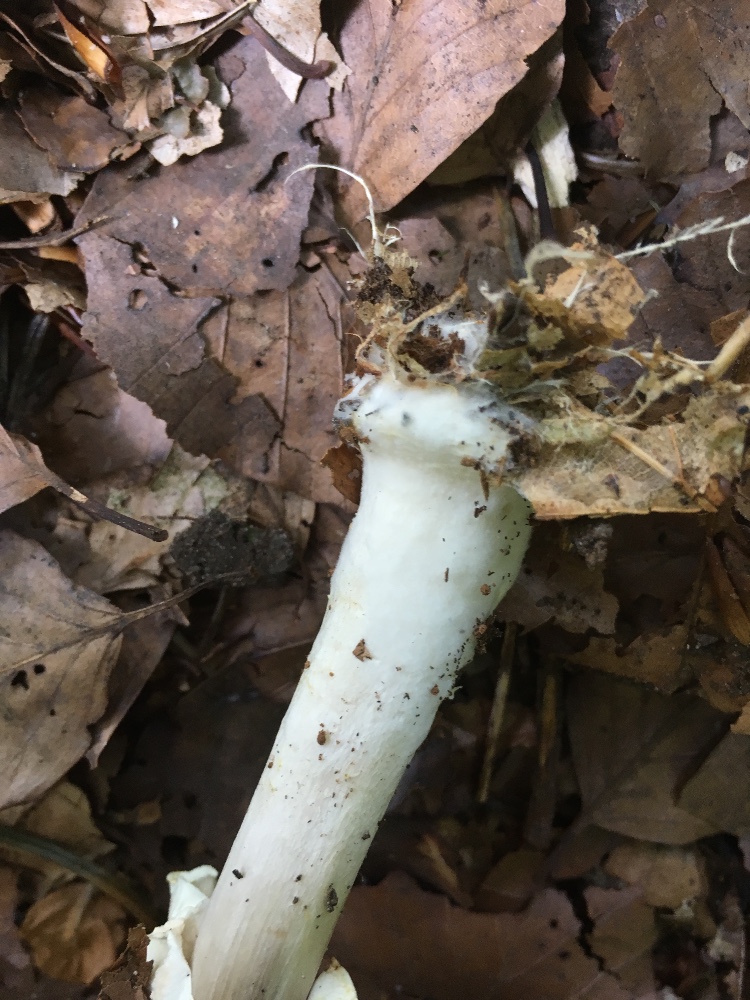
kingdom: Fungi
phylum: Basidiomycota
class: Agaricomycetes
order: Agaricales
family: Agaricaceae
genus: Agaricus
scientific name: Agaricus sylvicola
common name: skiveknoldet champignon
